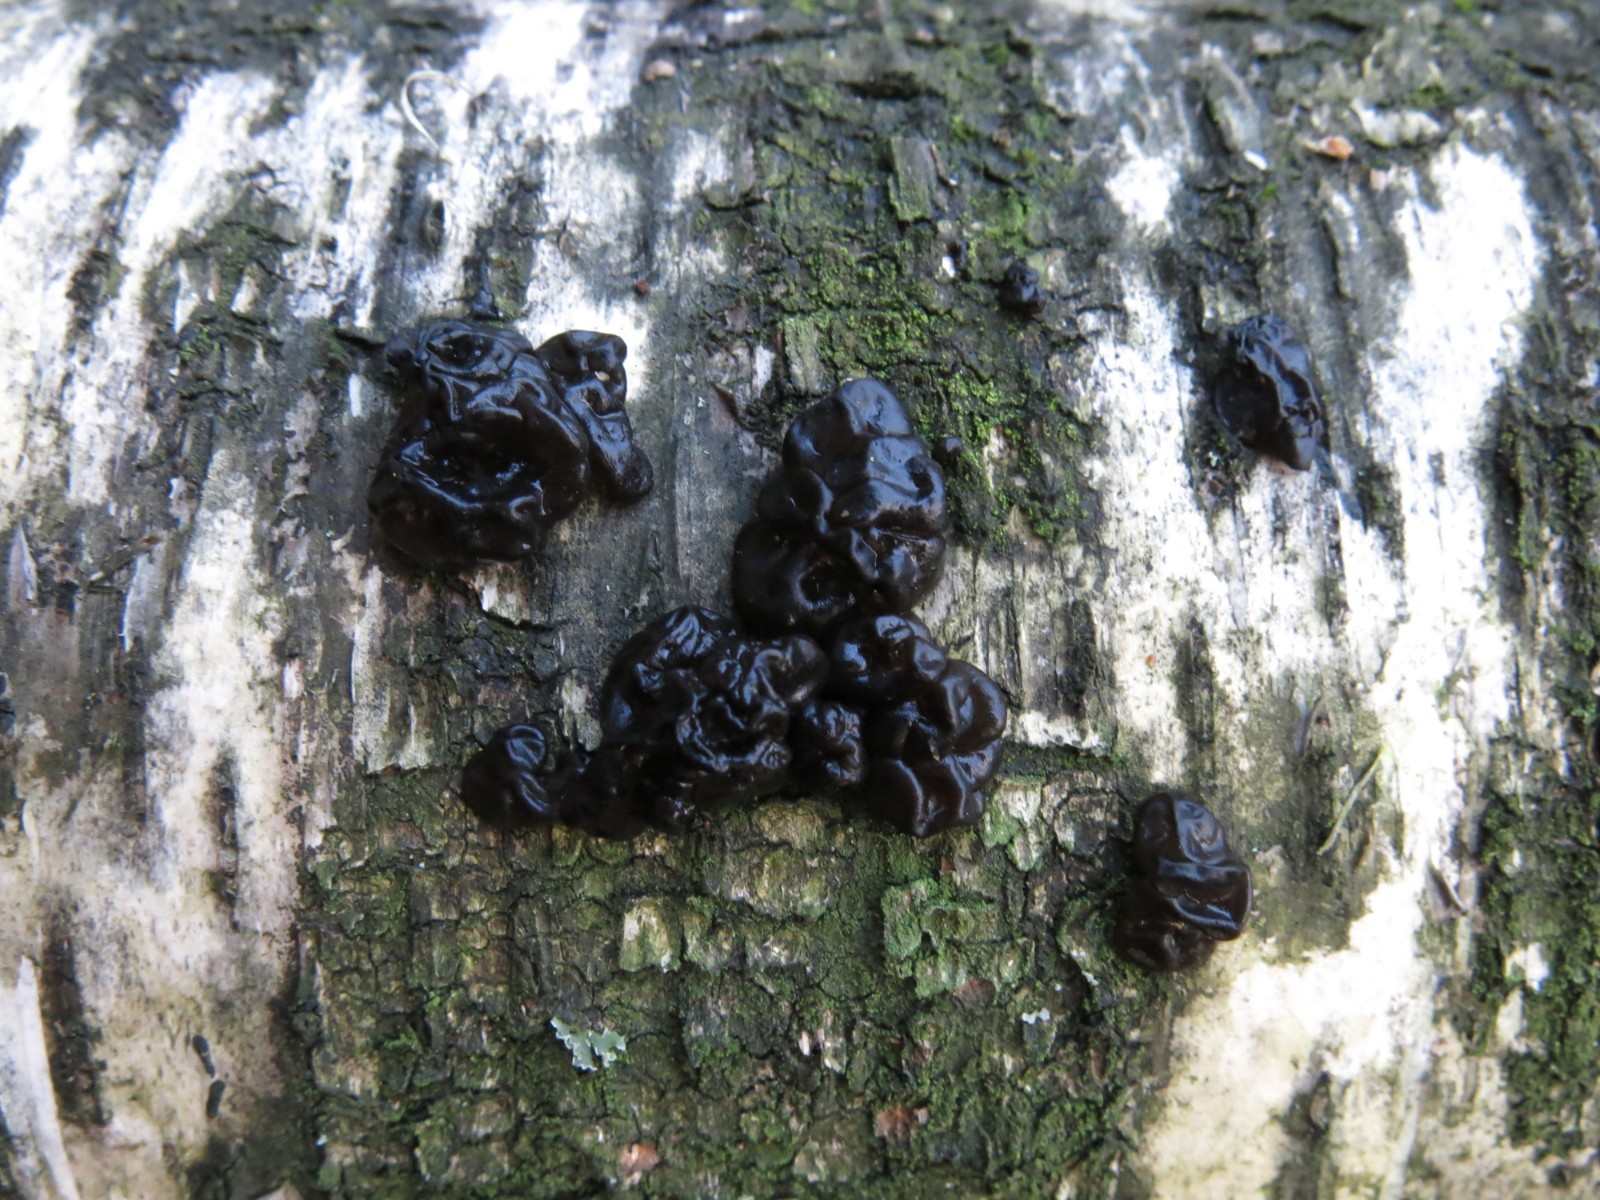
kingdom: Fungi
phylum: Basidiomycota
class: Agaricomycetes
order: Auriculariales
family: Auriculariaceae
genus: Exidia
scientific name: Exidia nigricans
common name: almindelig bævretop
